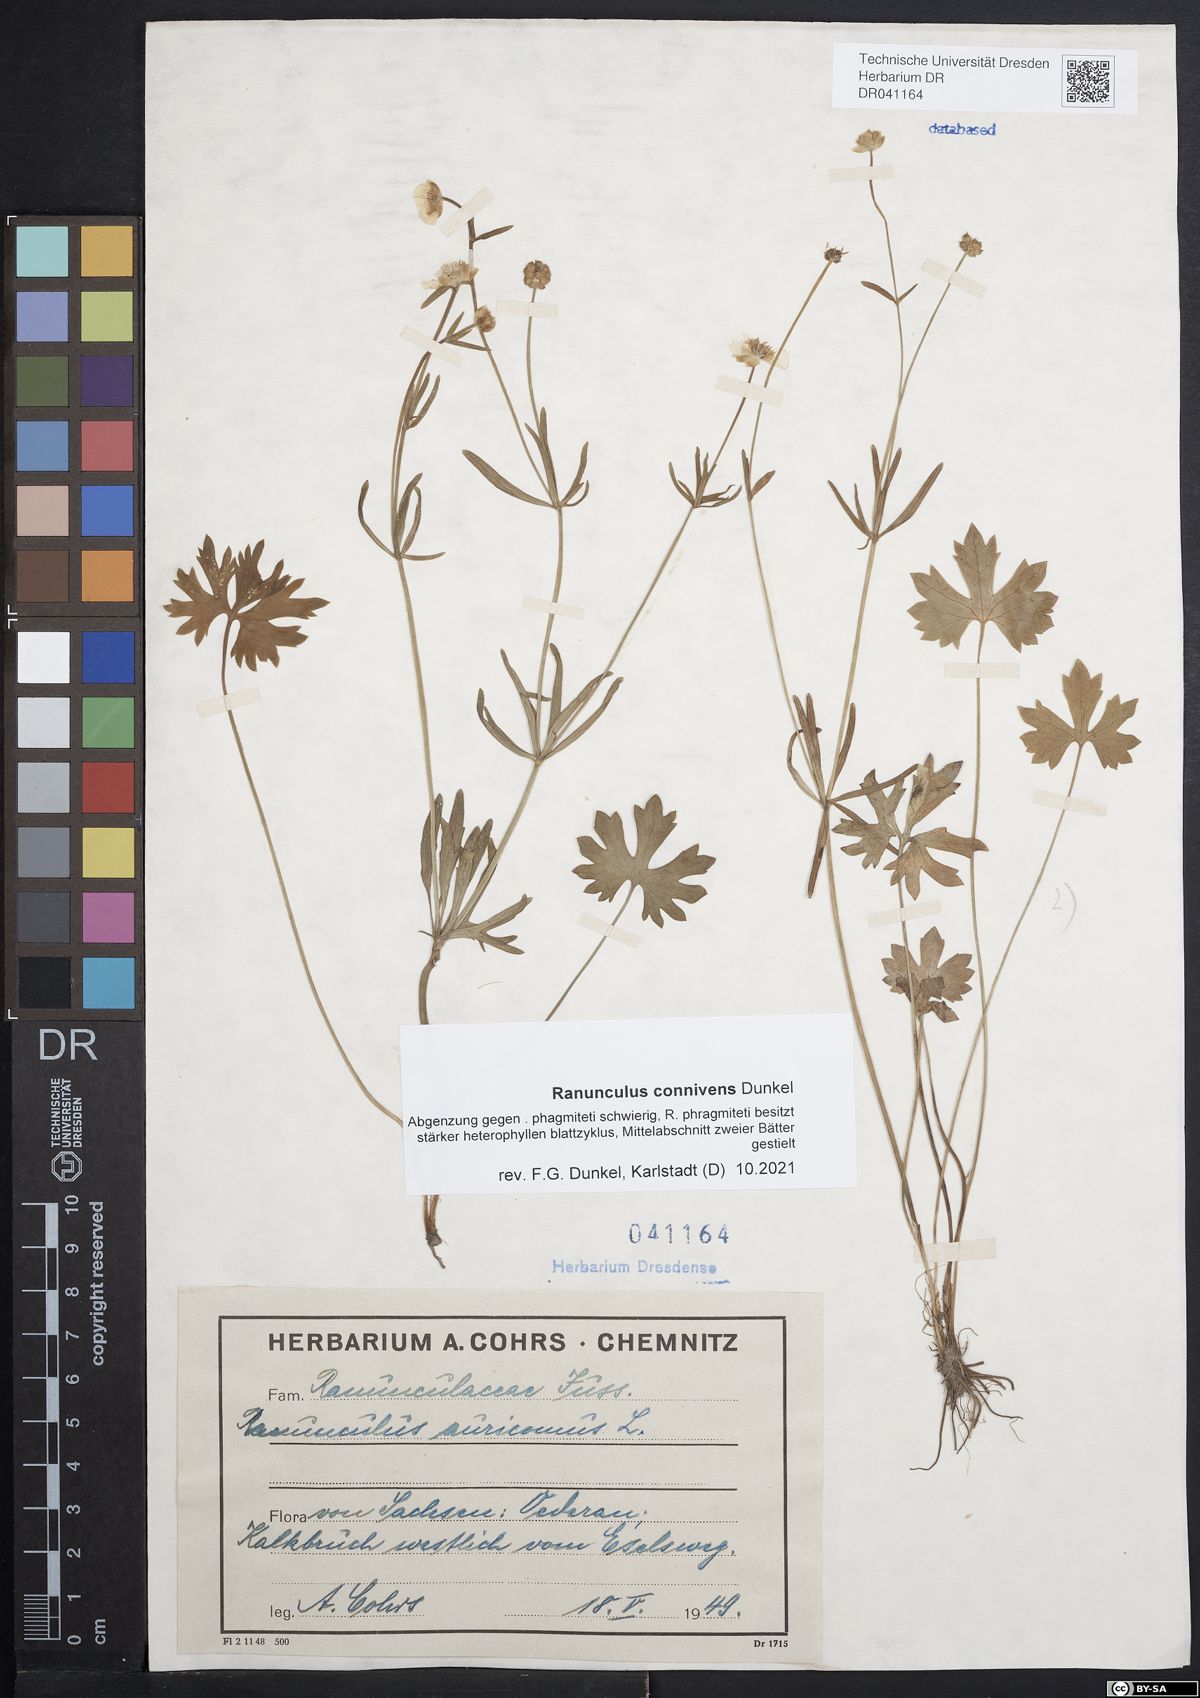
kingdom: Plantae
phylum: Tracheophyta
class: Magnoliopsida
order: Ranunculales
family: Ranunculaceae
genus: Ranunculus
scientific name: Ranunculus connivens
